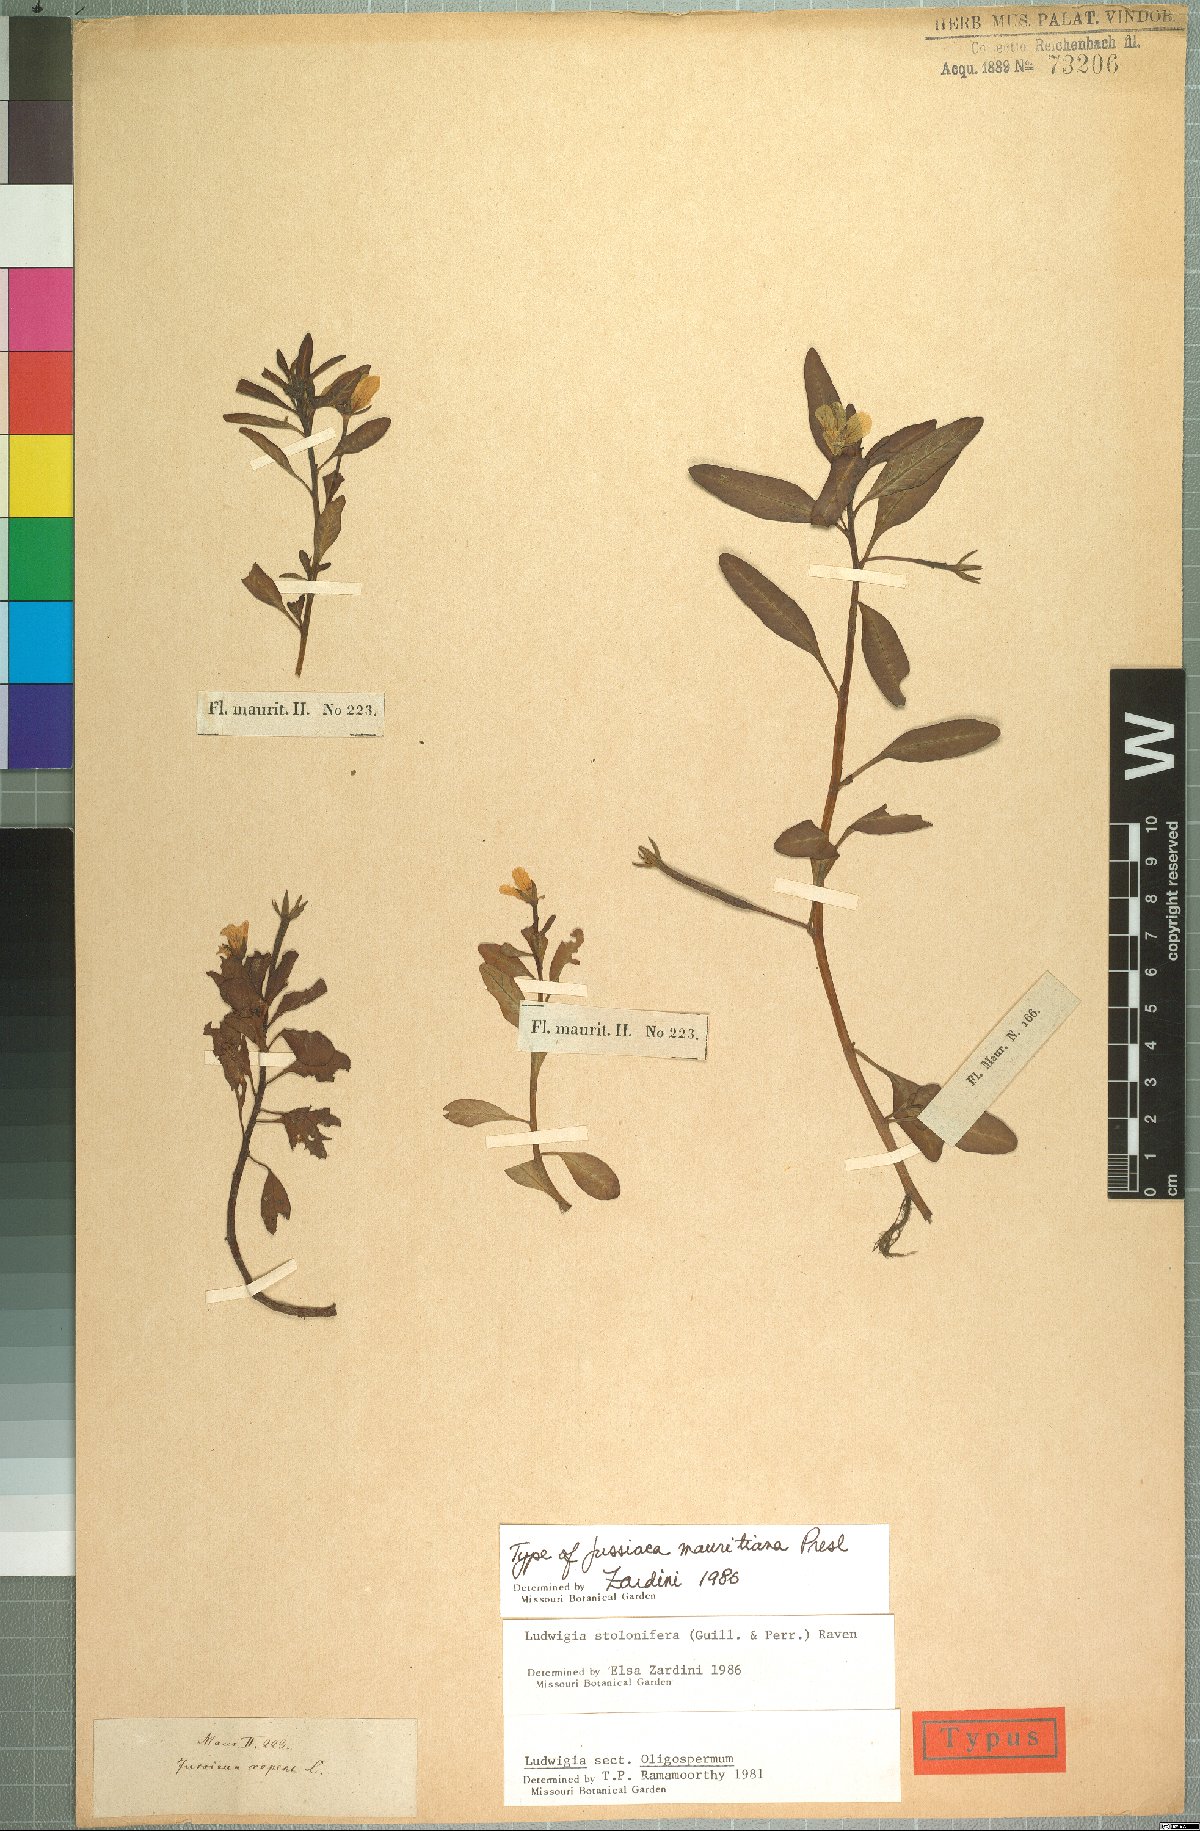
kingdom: Plantae
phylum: Tracheophyta
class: Magnoliopsida
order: Myrtales
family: Onagraceae
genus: Ludwigia
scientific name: Ludwigia adscendens
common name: Creeping water primrose
